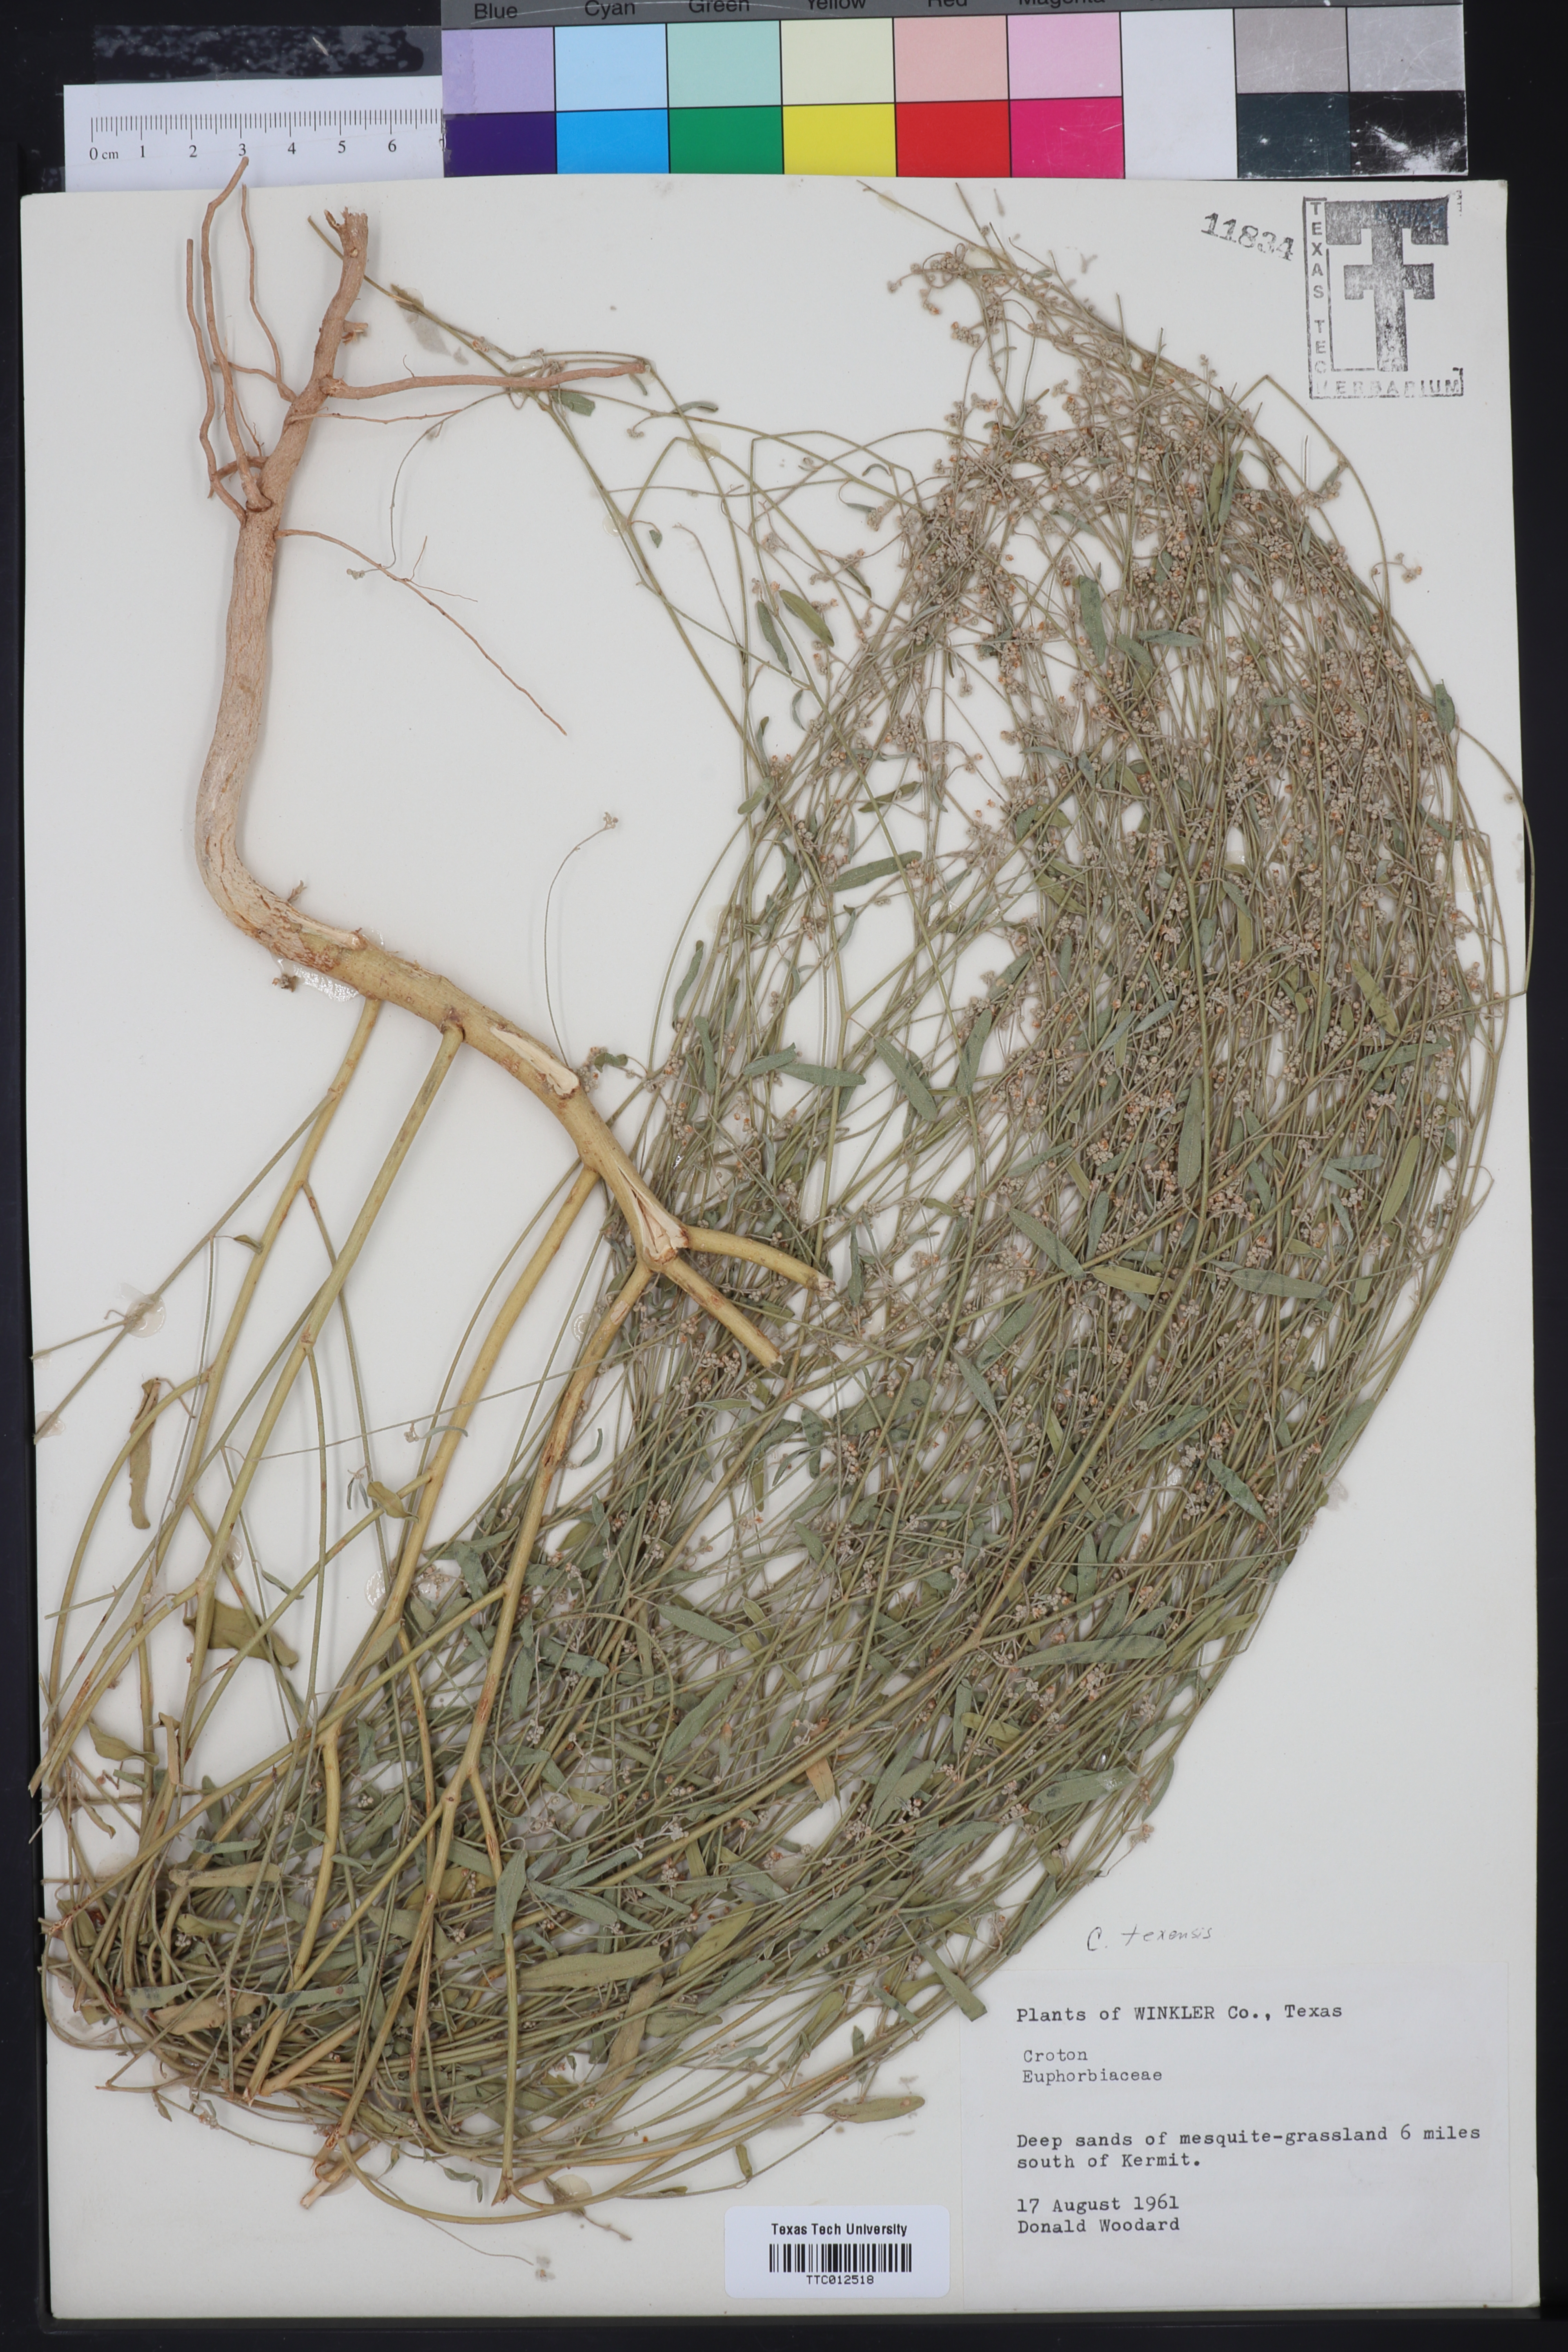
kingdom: Plantae
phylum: Tracheophyta
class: Magnoliopsida
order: Malpighiales
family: Euphorbiaceae
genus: Croton
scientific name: Croton texensis
